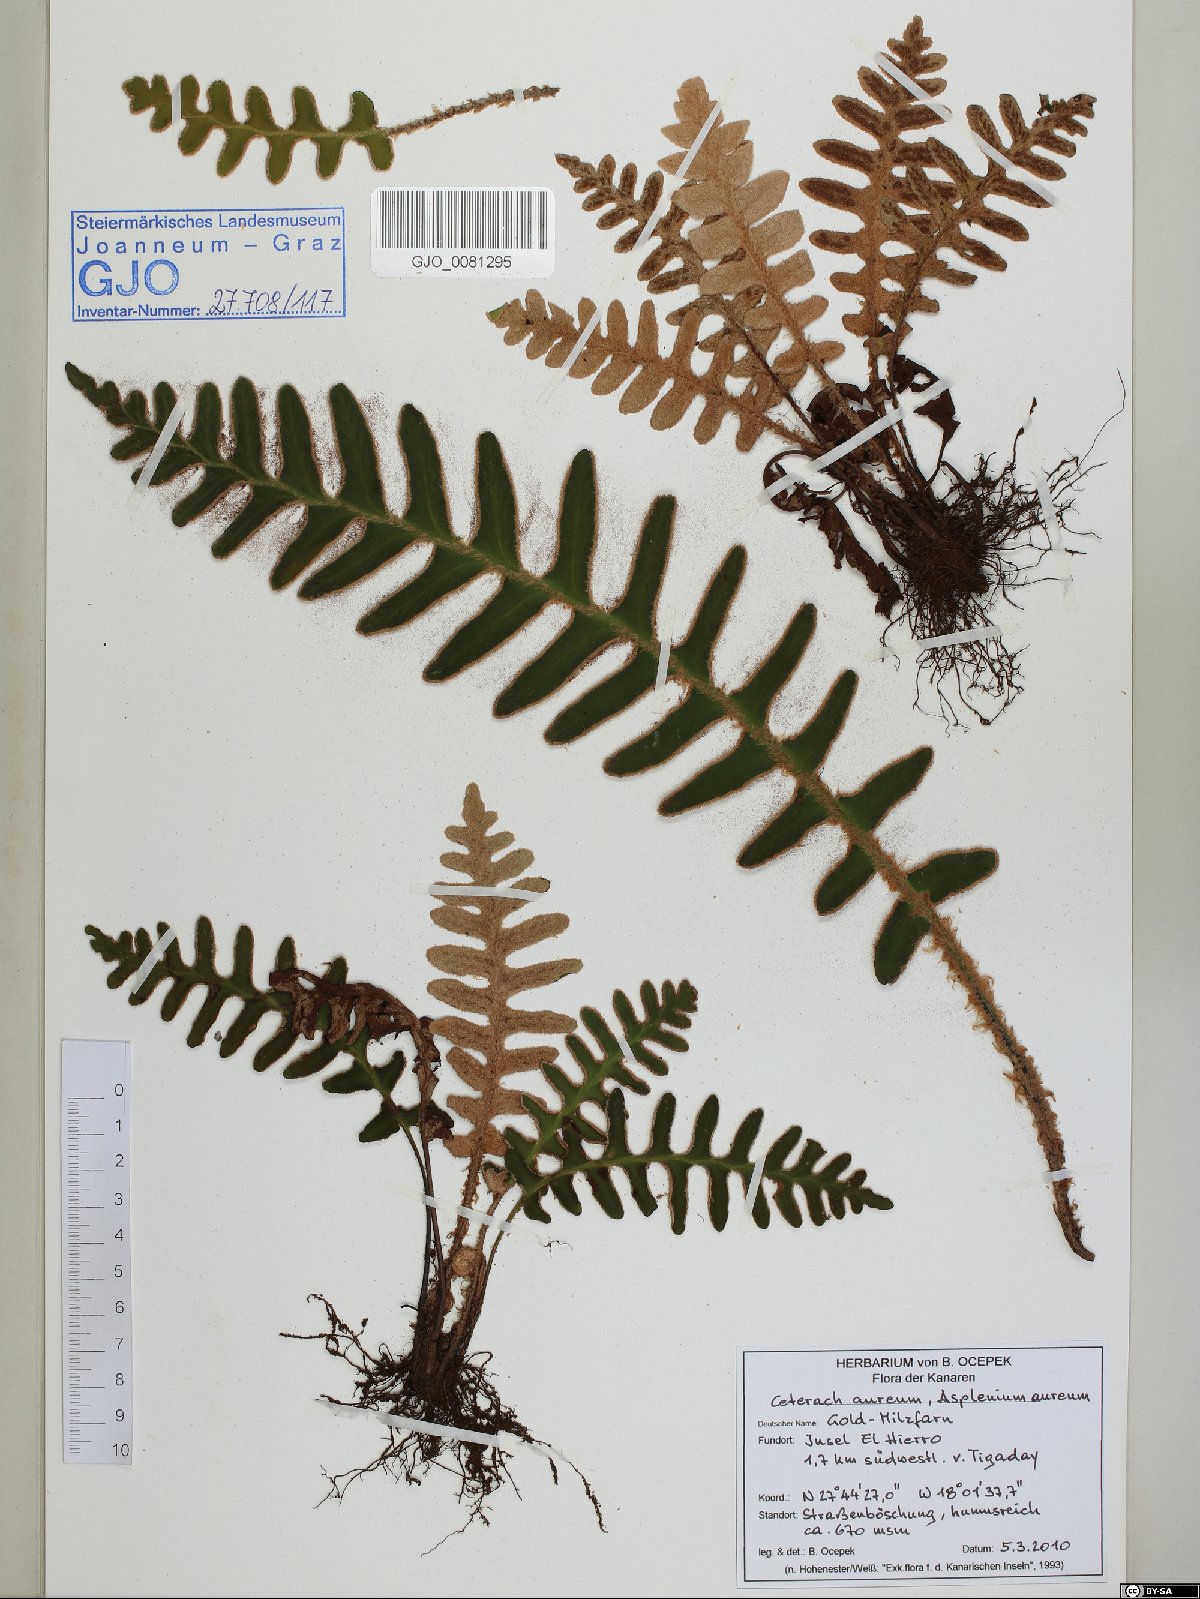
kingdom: Plantae
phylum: Tracheophyta
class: Polypodiopsida
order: Polypodiales
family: Aspleniaceae
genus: Asplenium
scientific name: Asplenium aureum
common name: Golden rustyback fern
